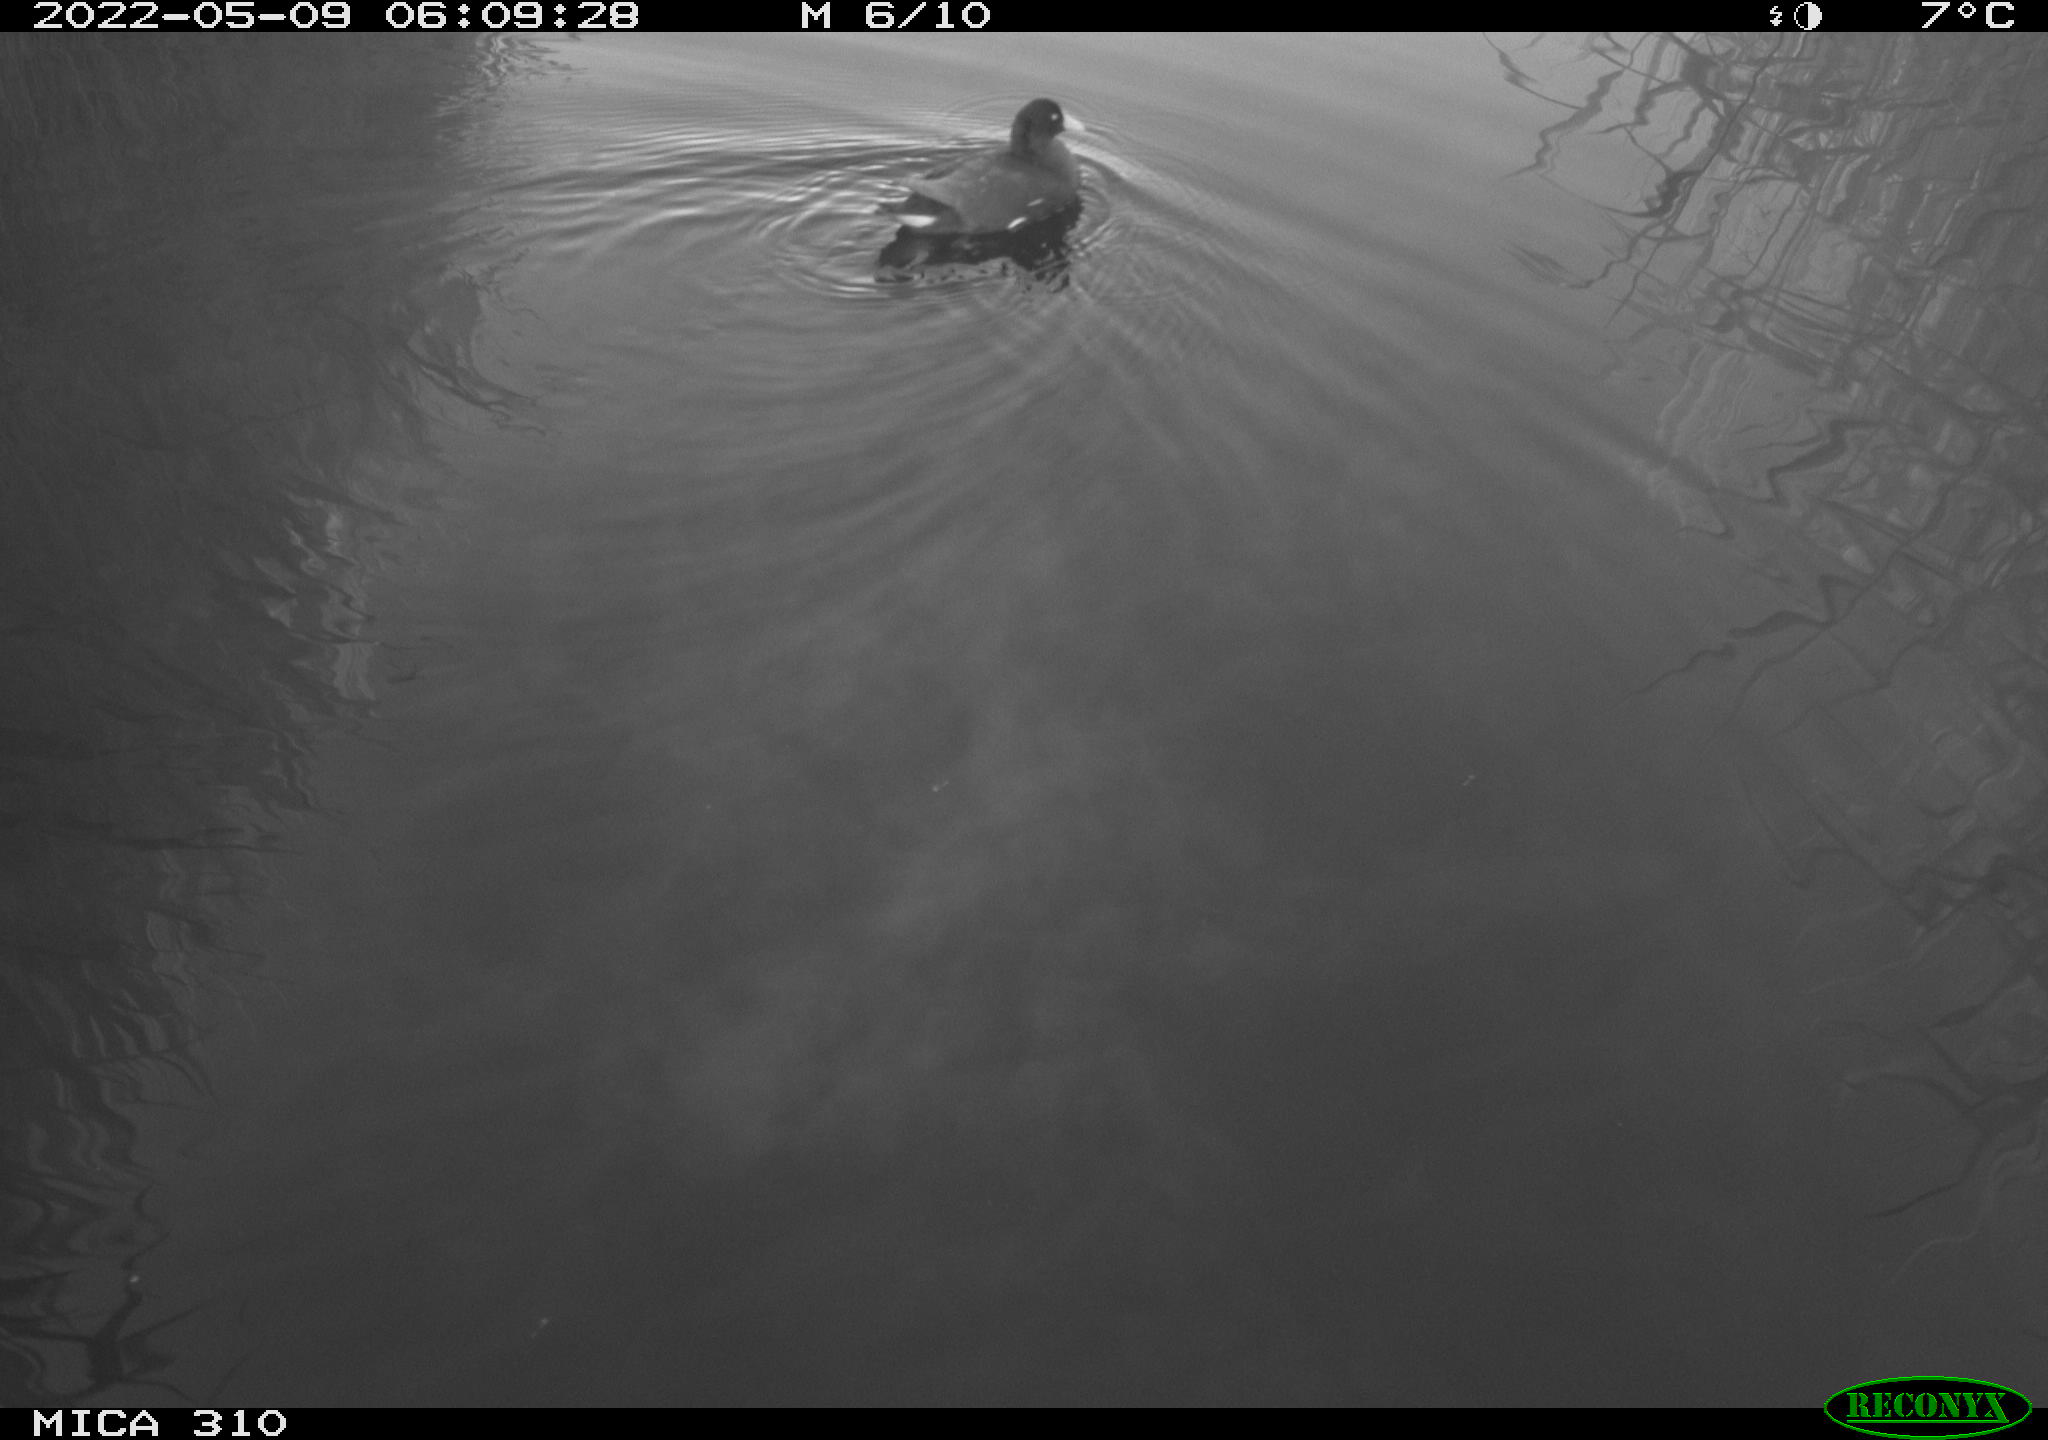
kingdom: Animalia
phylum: Chordata
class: Aves
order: Gruiformes
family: Rallidae
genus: Gallinula
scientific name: Gallinula chloropus
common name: Common moorhen
